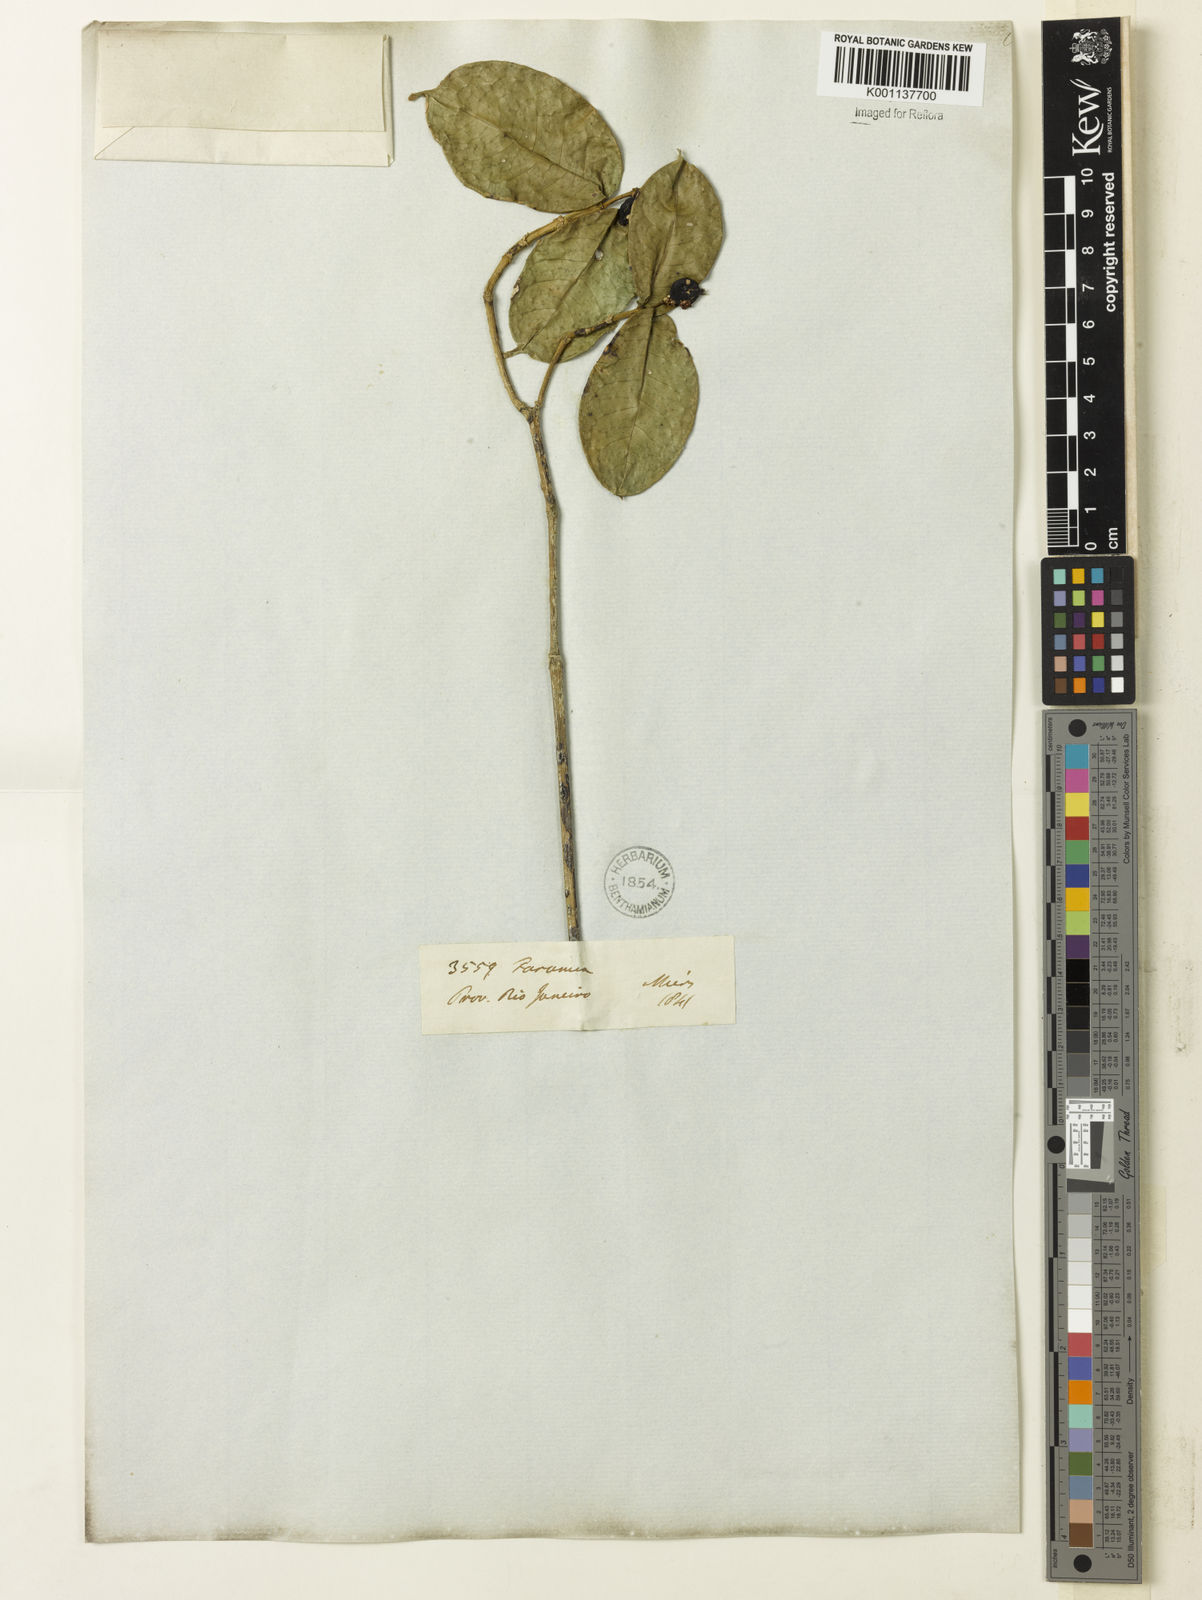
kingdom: Plantae
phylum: Tracheophyta
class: Magnoliopsida
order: Gentianales
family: Rubiaceae
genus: Coussarea
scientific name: Coussarea
